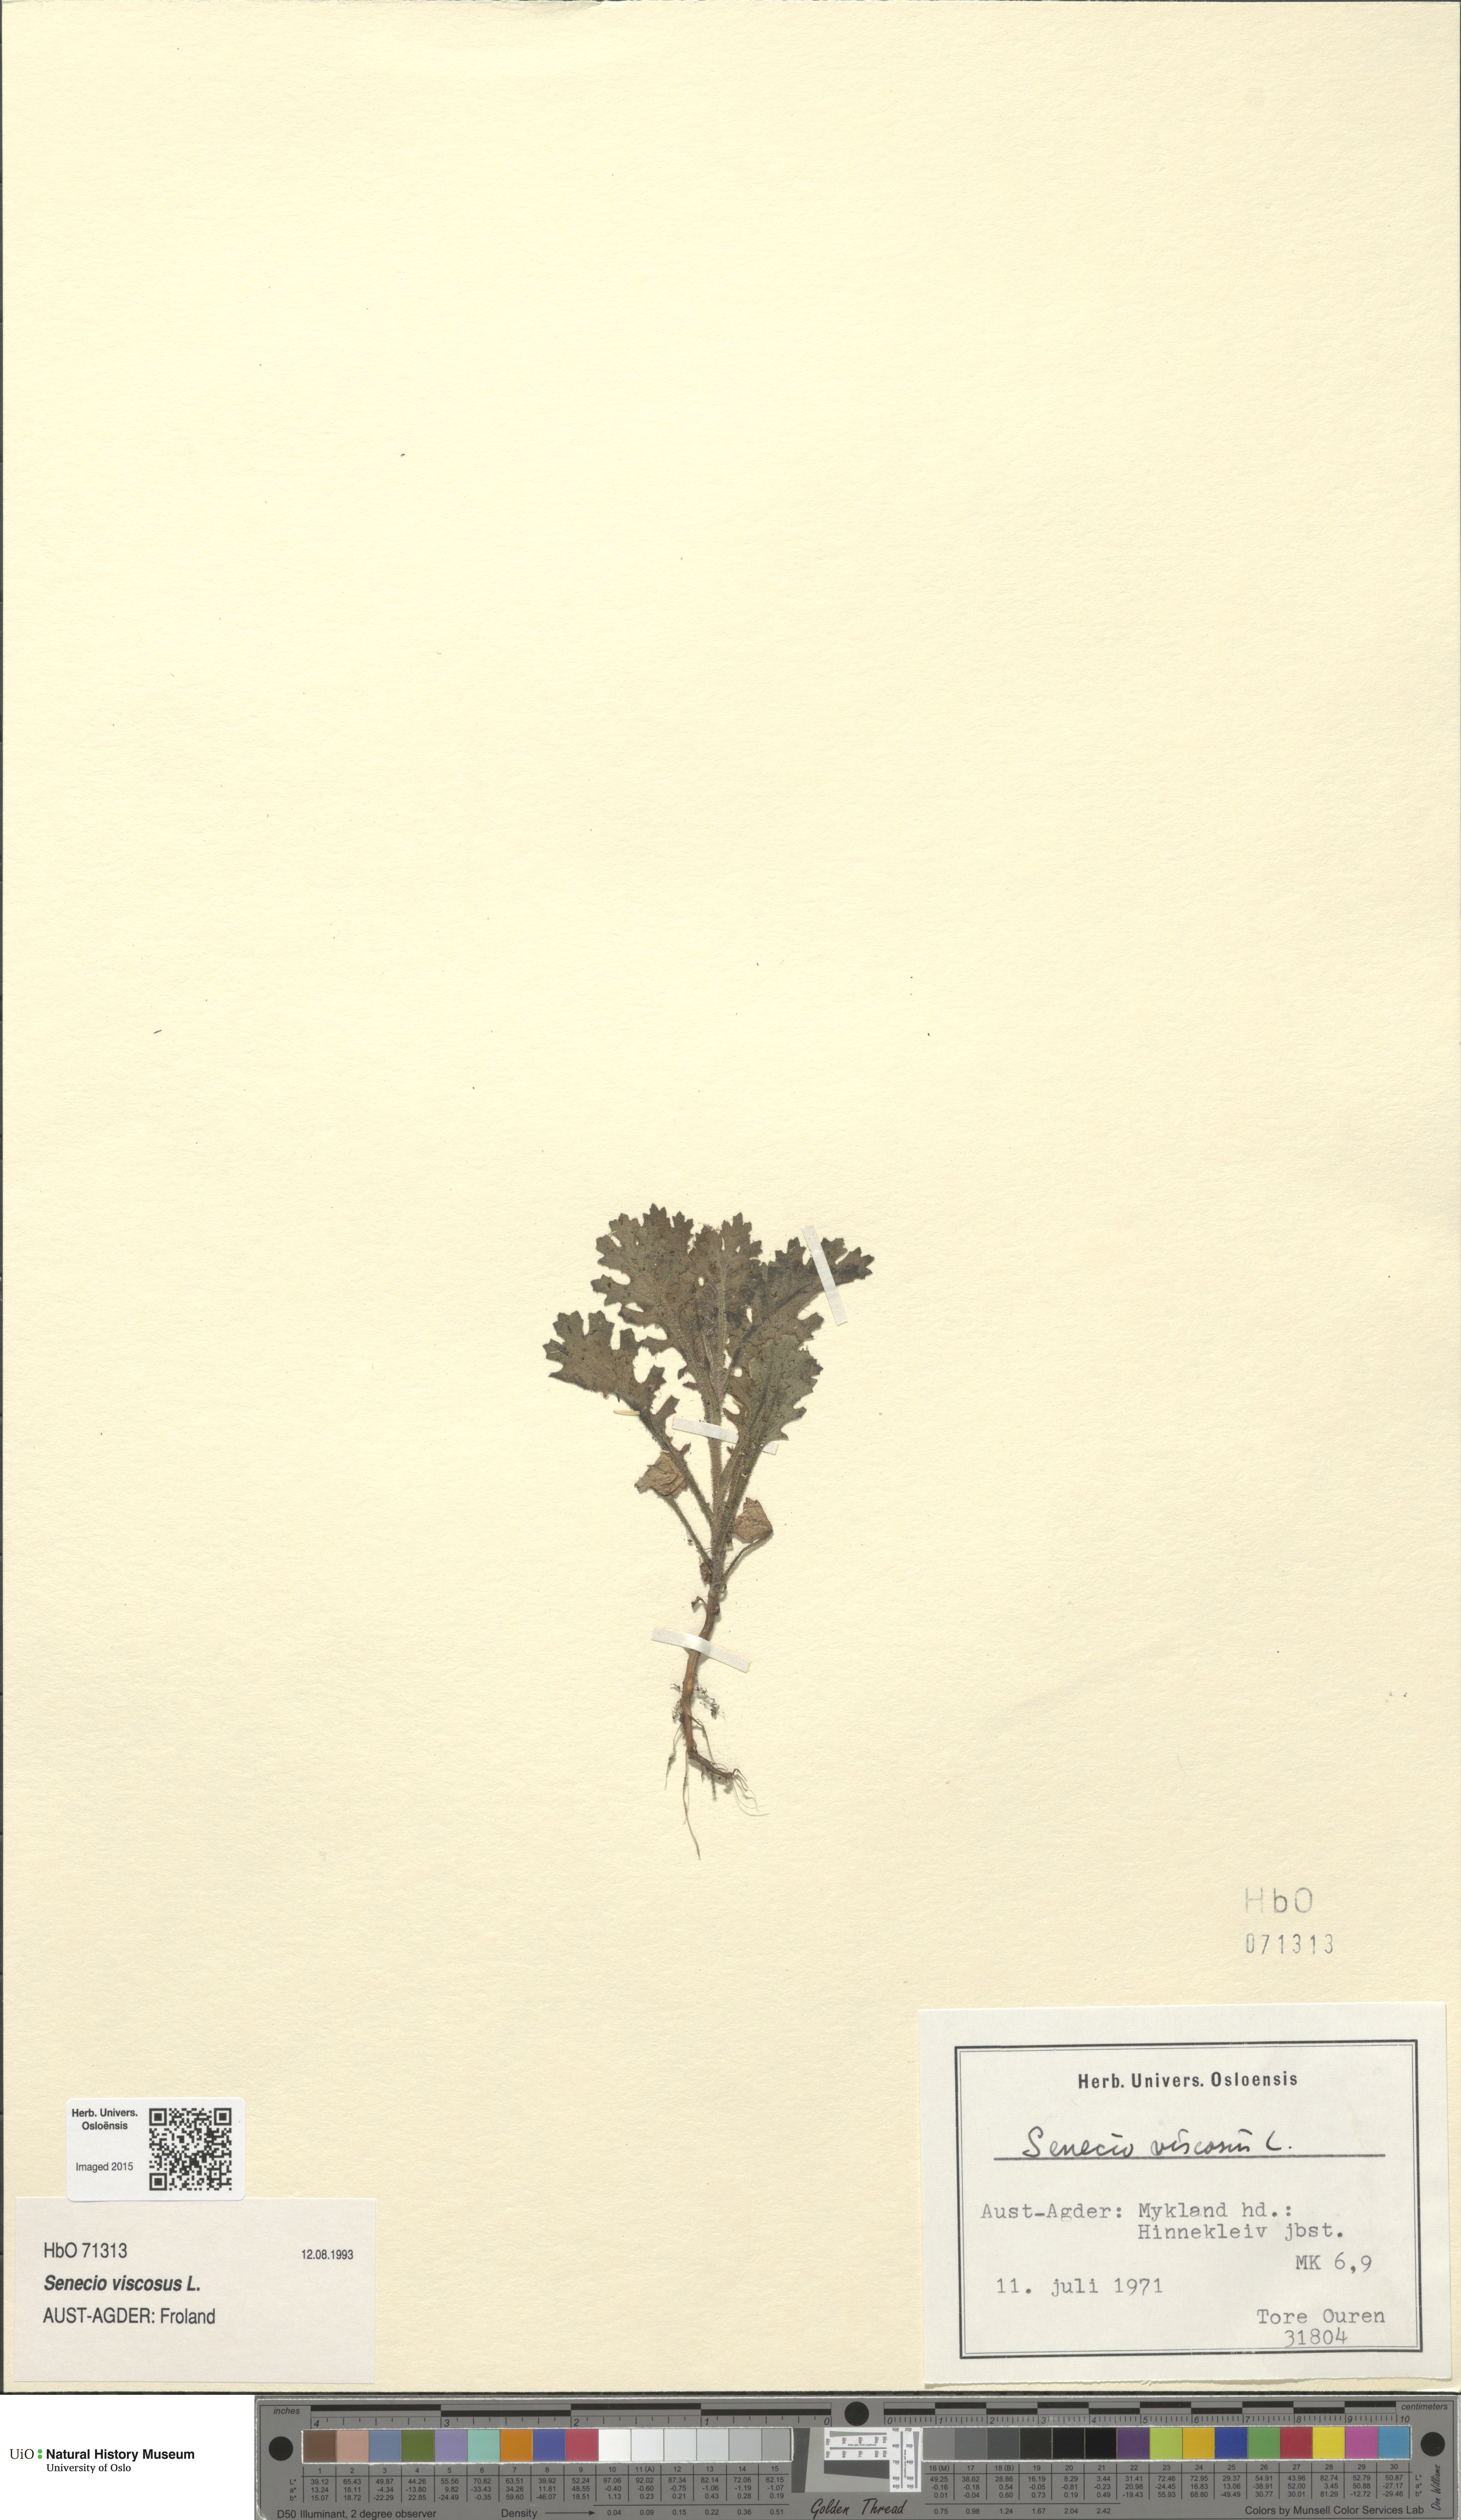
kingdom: Plantae
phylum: Tracheophyta
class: Magnoliopsida
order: Asterales
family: Asteraceae
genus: Senecio
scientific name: Senecio viscosus
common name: Sticky groundsel
